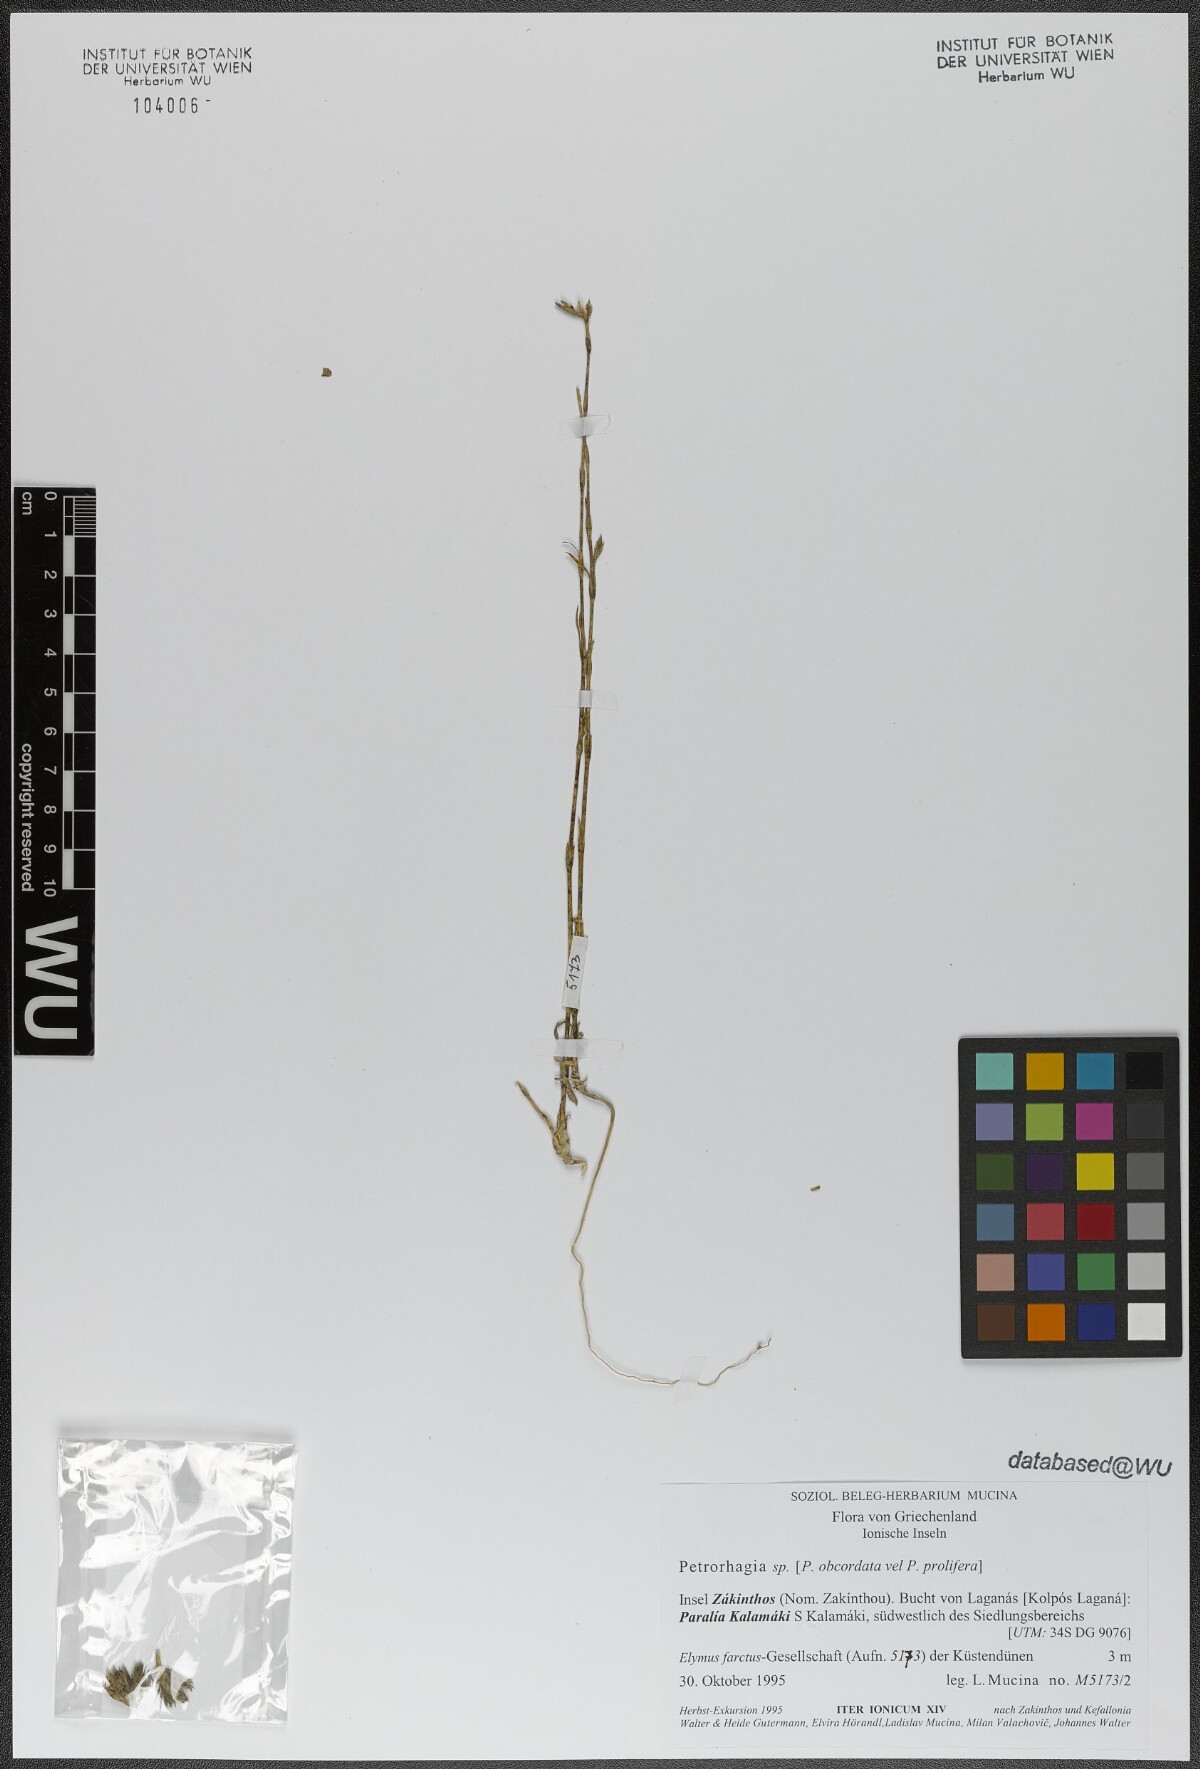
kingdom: Plantae
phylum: Tracheophyta
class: Magnoliopsida
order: Caryophyllales
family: Caryophyllaceae
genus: Petrorhagia
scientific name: Petrorhagia prolifera
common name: Proliferous pink
